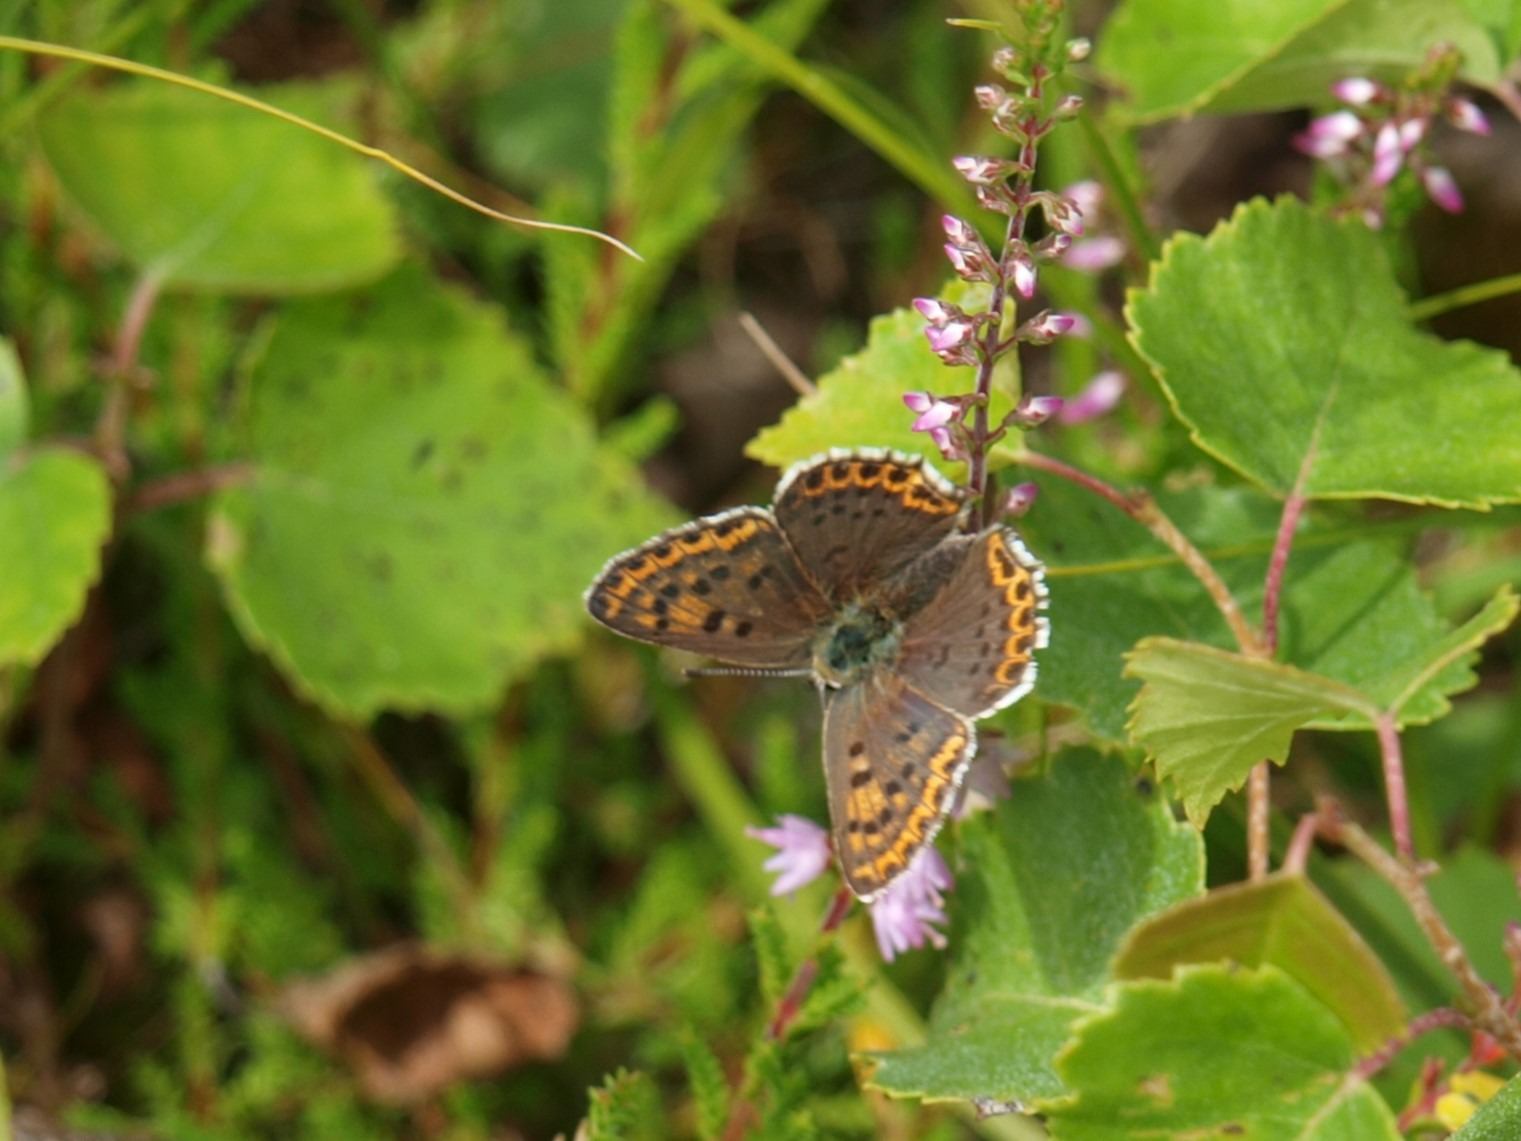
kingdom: Animalia
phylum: Arthropoda
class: Insecta
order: Lepidoptera
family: Lycaenidae
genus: Loweia
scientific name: Loweia tityrus
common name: Sort ildfugl
